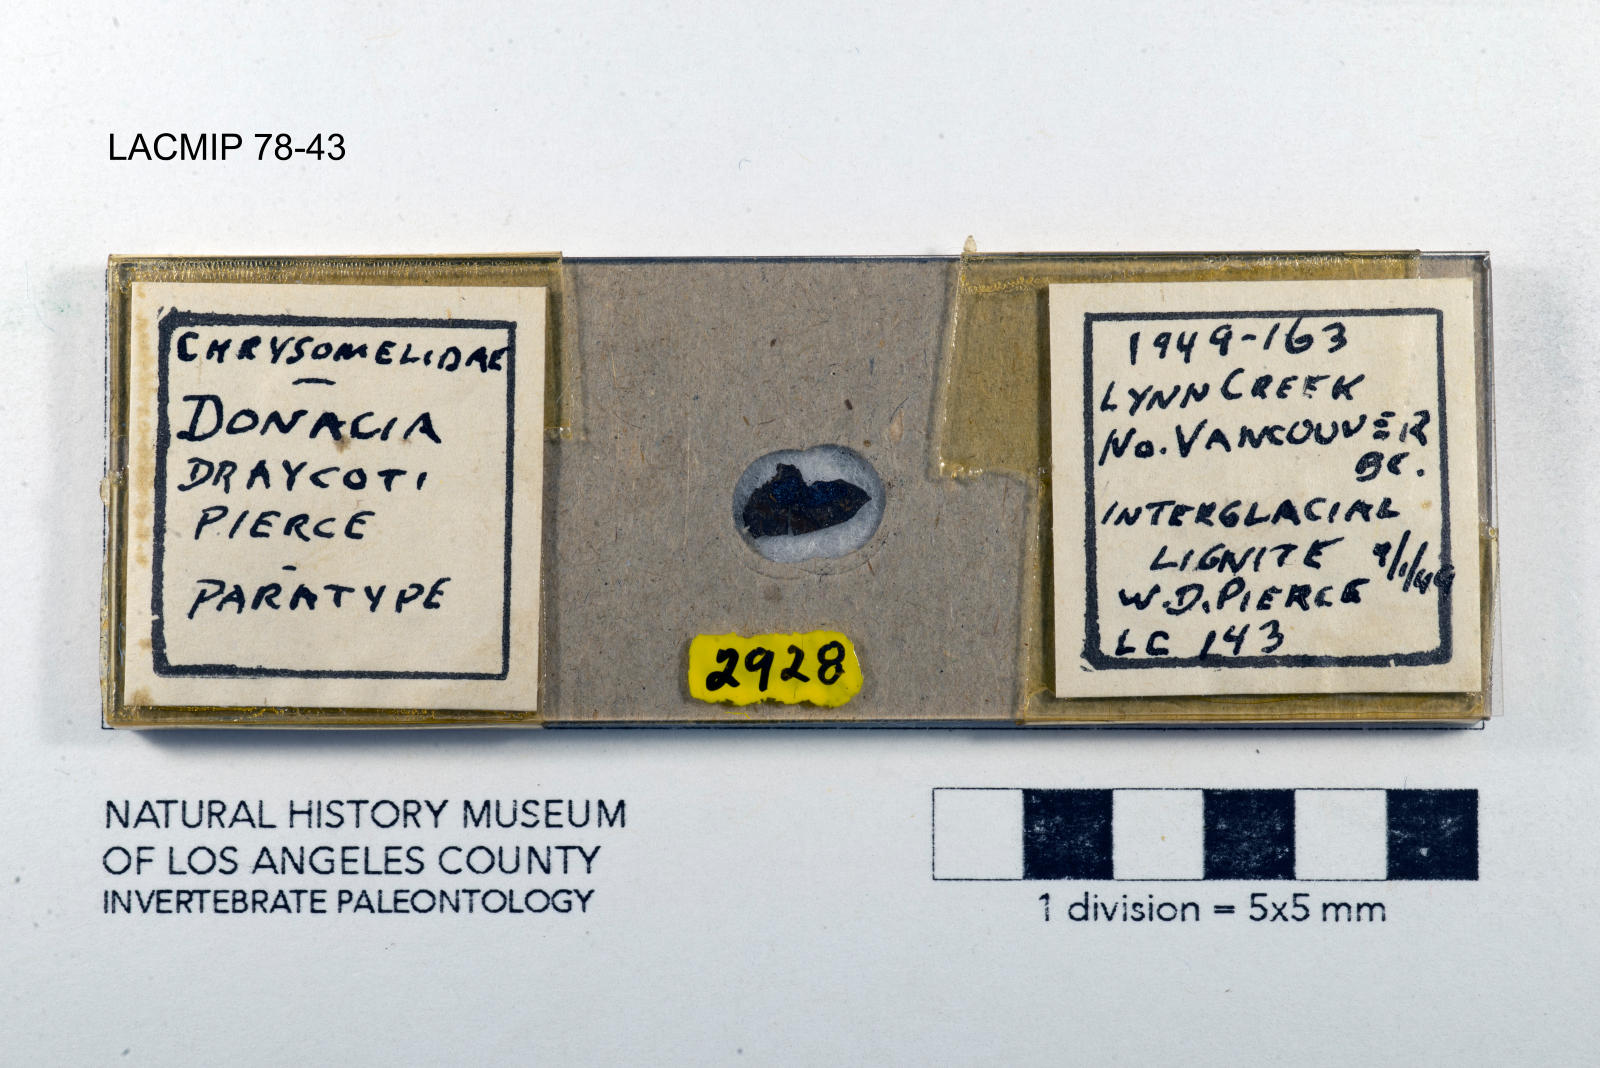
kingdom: Animalia
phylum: Arthropoda
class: Insecta
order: Coleoptera
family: Chrysomelidae
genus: Donacia
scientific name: Donacia draycoti
